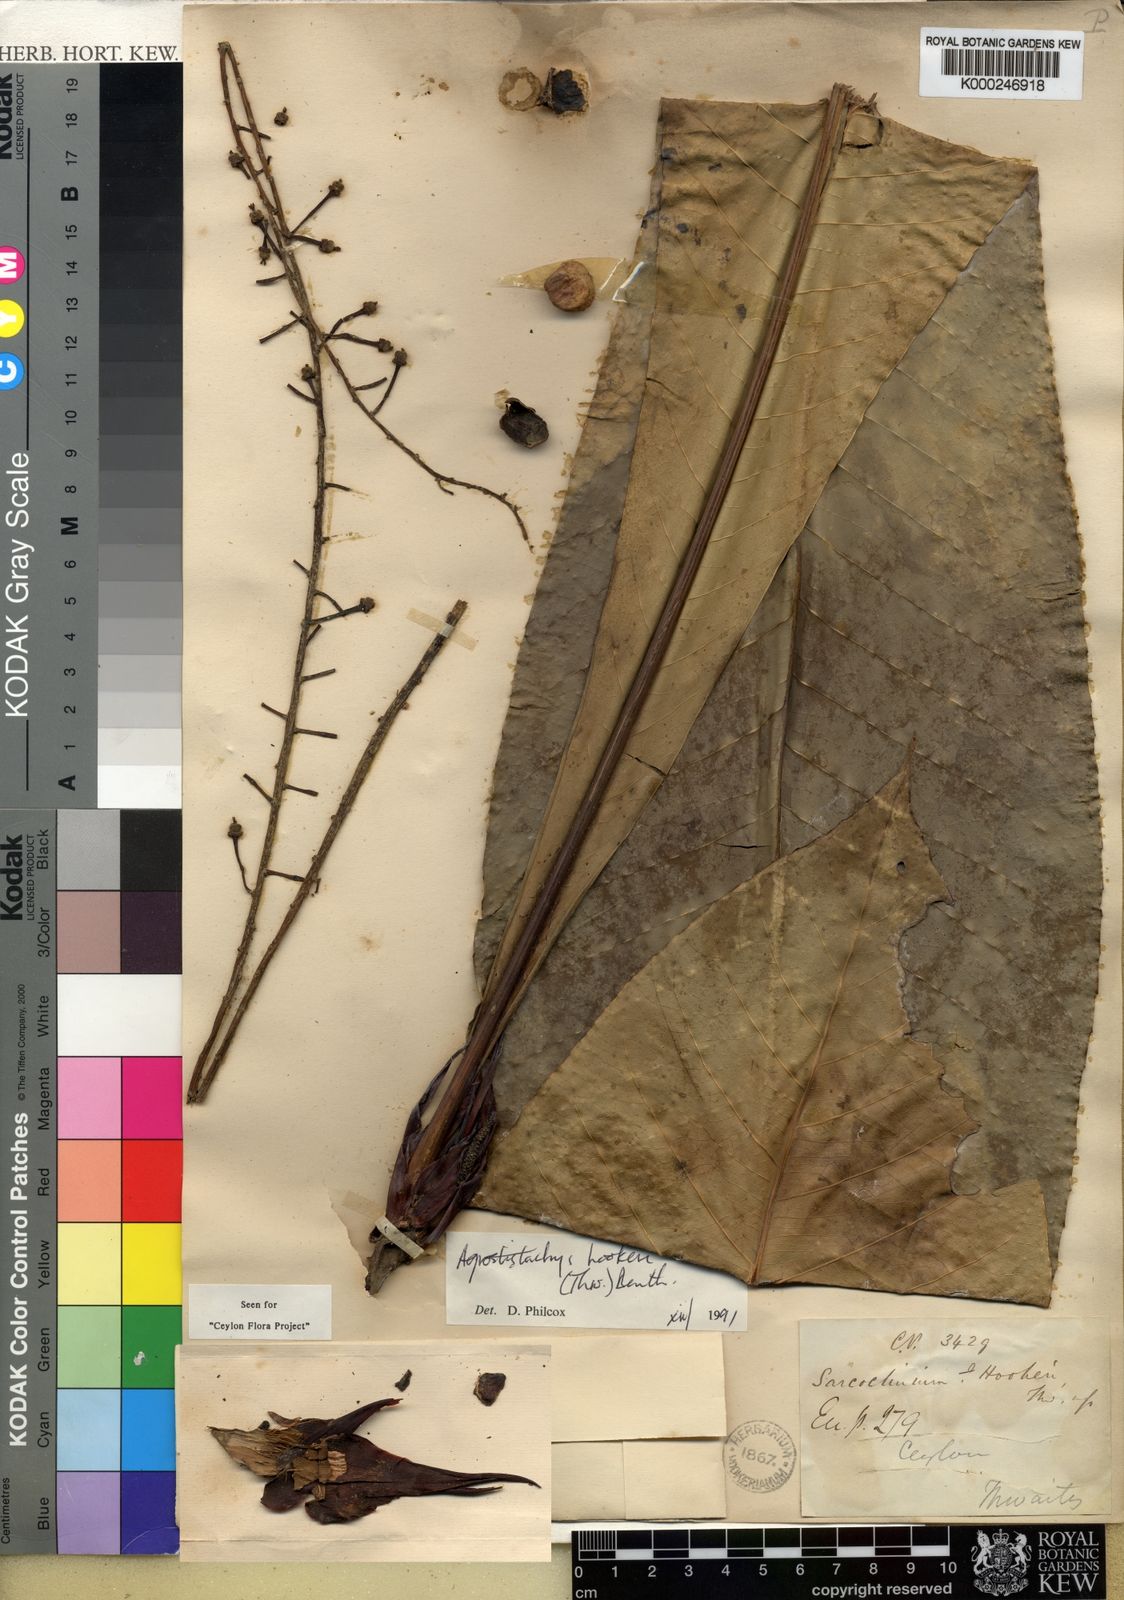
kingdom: Plantae
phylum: Tracheophyta
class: Magnoliopsida
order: Malpighiales
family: Euphorbiaceae
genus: Agrostistachys
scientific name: Agrostistachys
